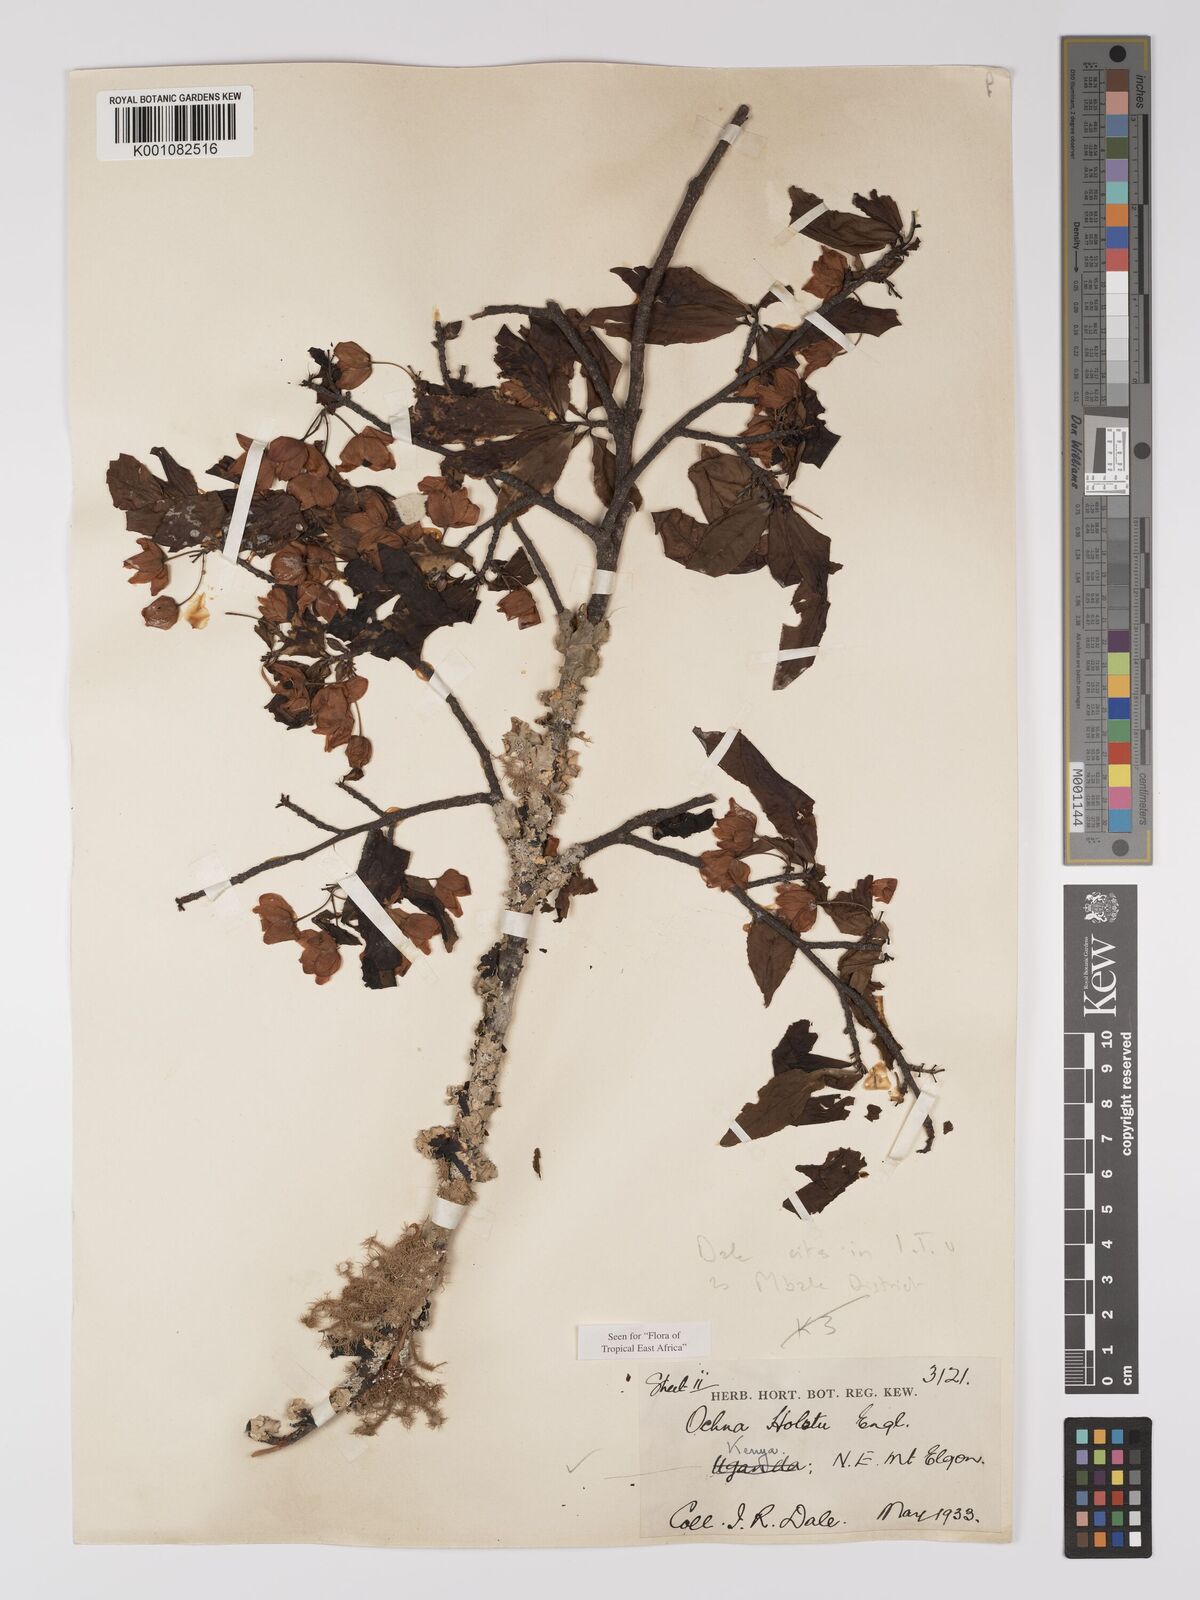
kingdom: Plantae
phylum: Tracheophyta
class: Magnoliopsida
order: Malpighiales
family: Ochnaceae
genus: Ochna
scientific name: Ochna holstii
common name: Red ironwood
